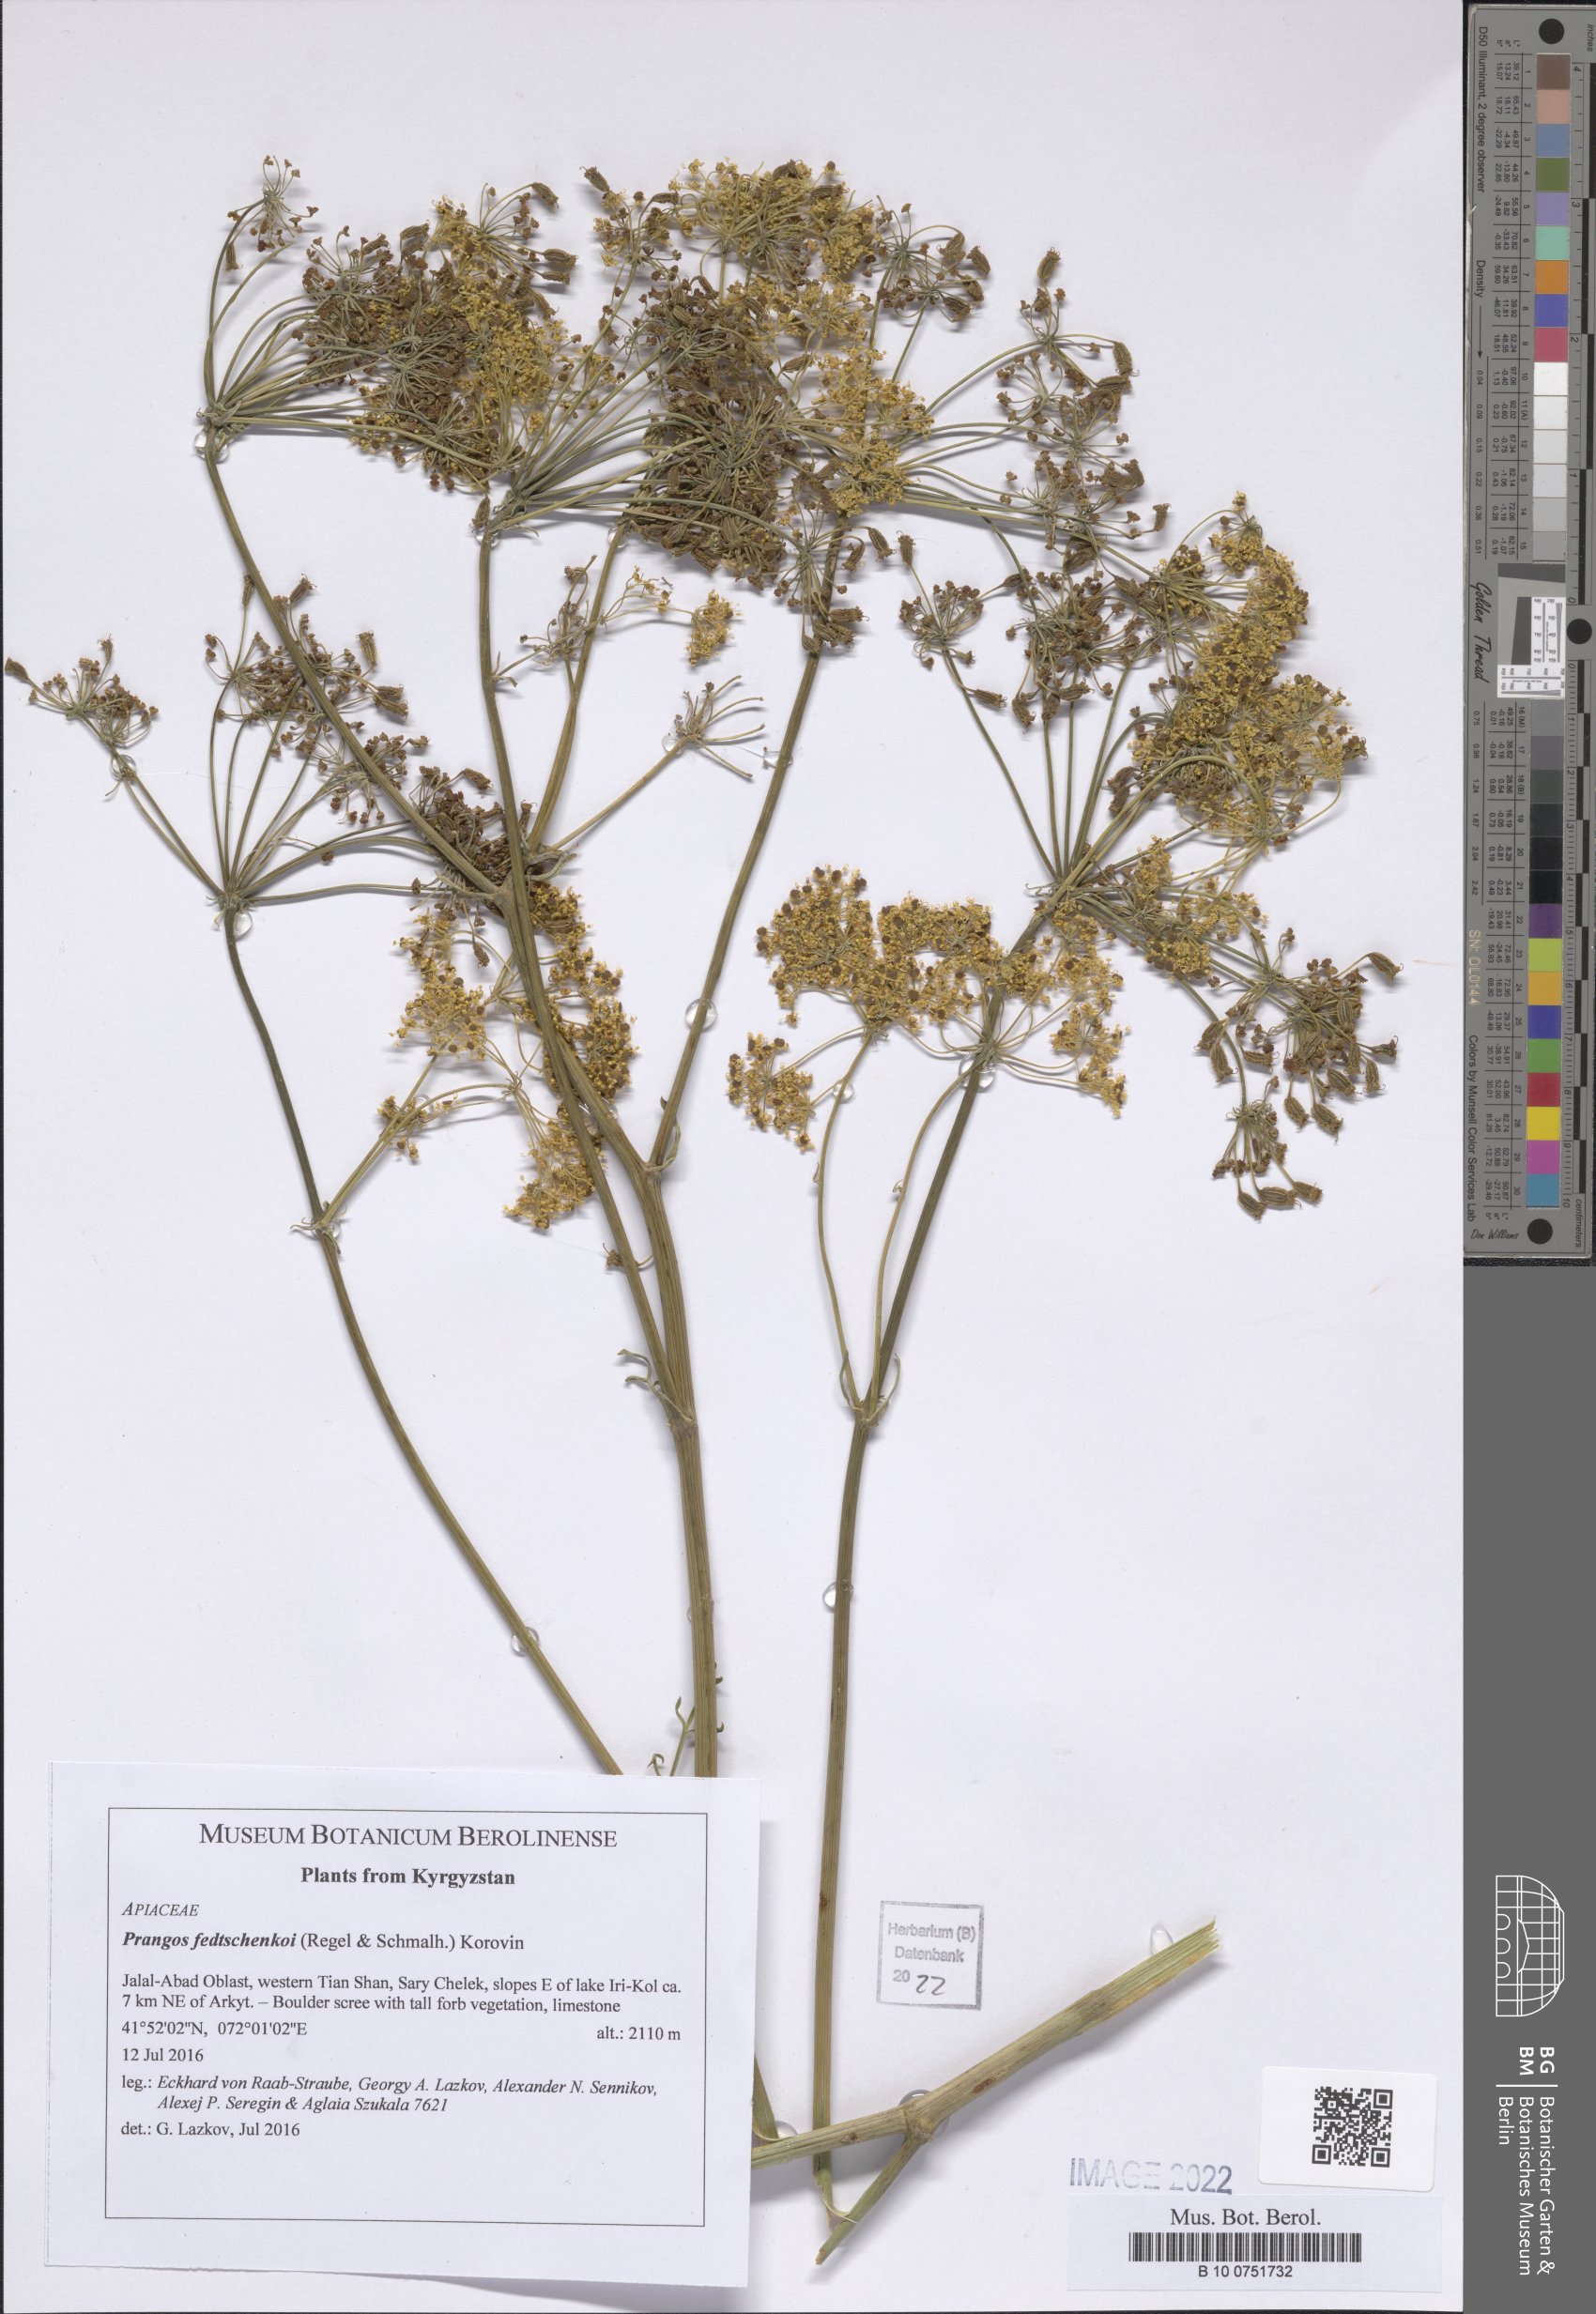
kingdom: Plantae
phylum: Tracheophyta
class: Magnoliopsida
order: Apiales
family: Apiaceae
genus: Prangos
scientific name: Prangos pabularia
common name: Yugan
